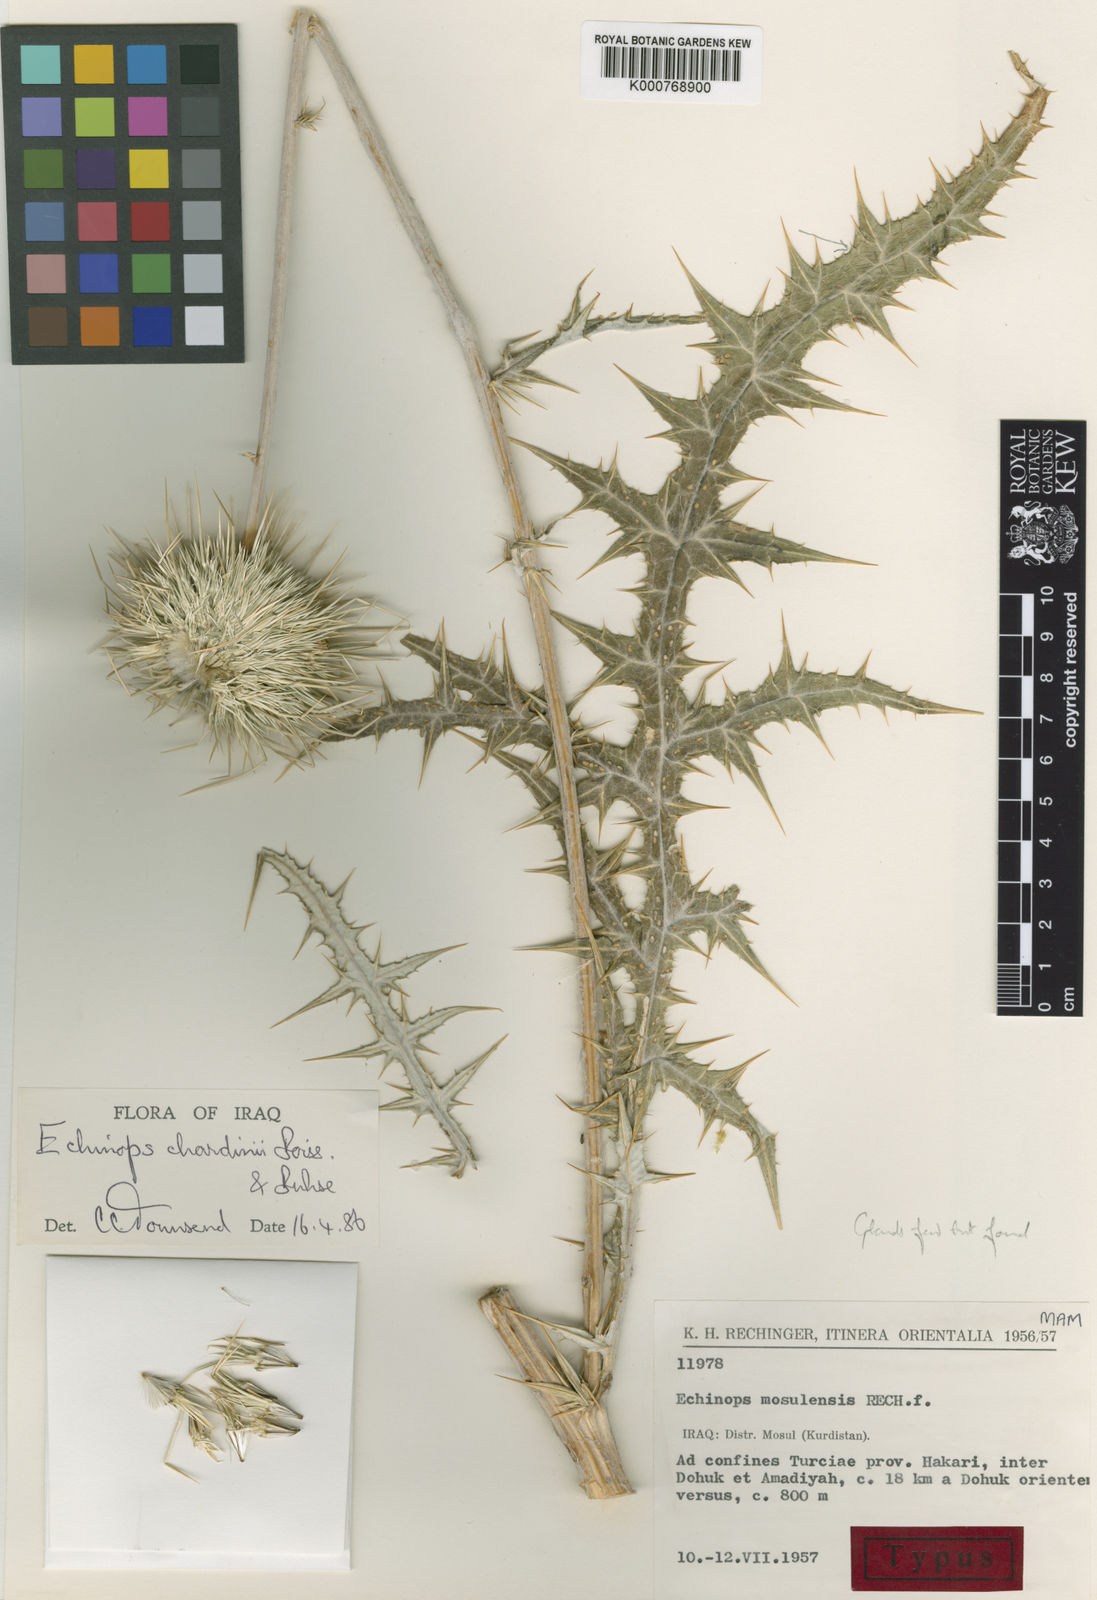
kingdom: Plantae
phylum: Tracheophyta
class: Magnoliopsida
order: Asterales
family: Asteraceae
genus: Echinops
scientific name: Echinops chardinii
